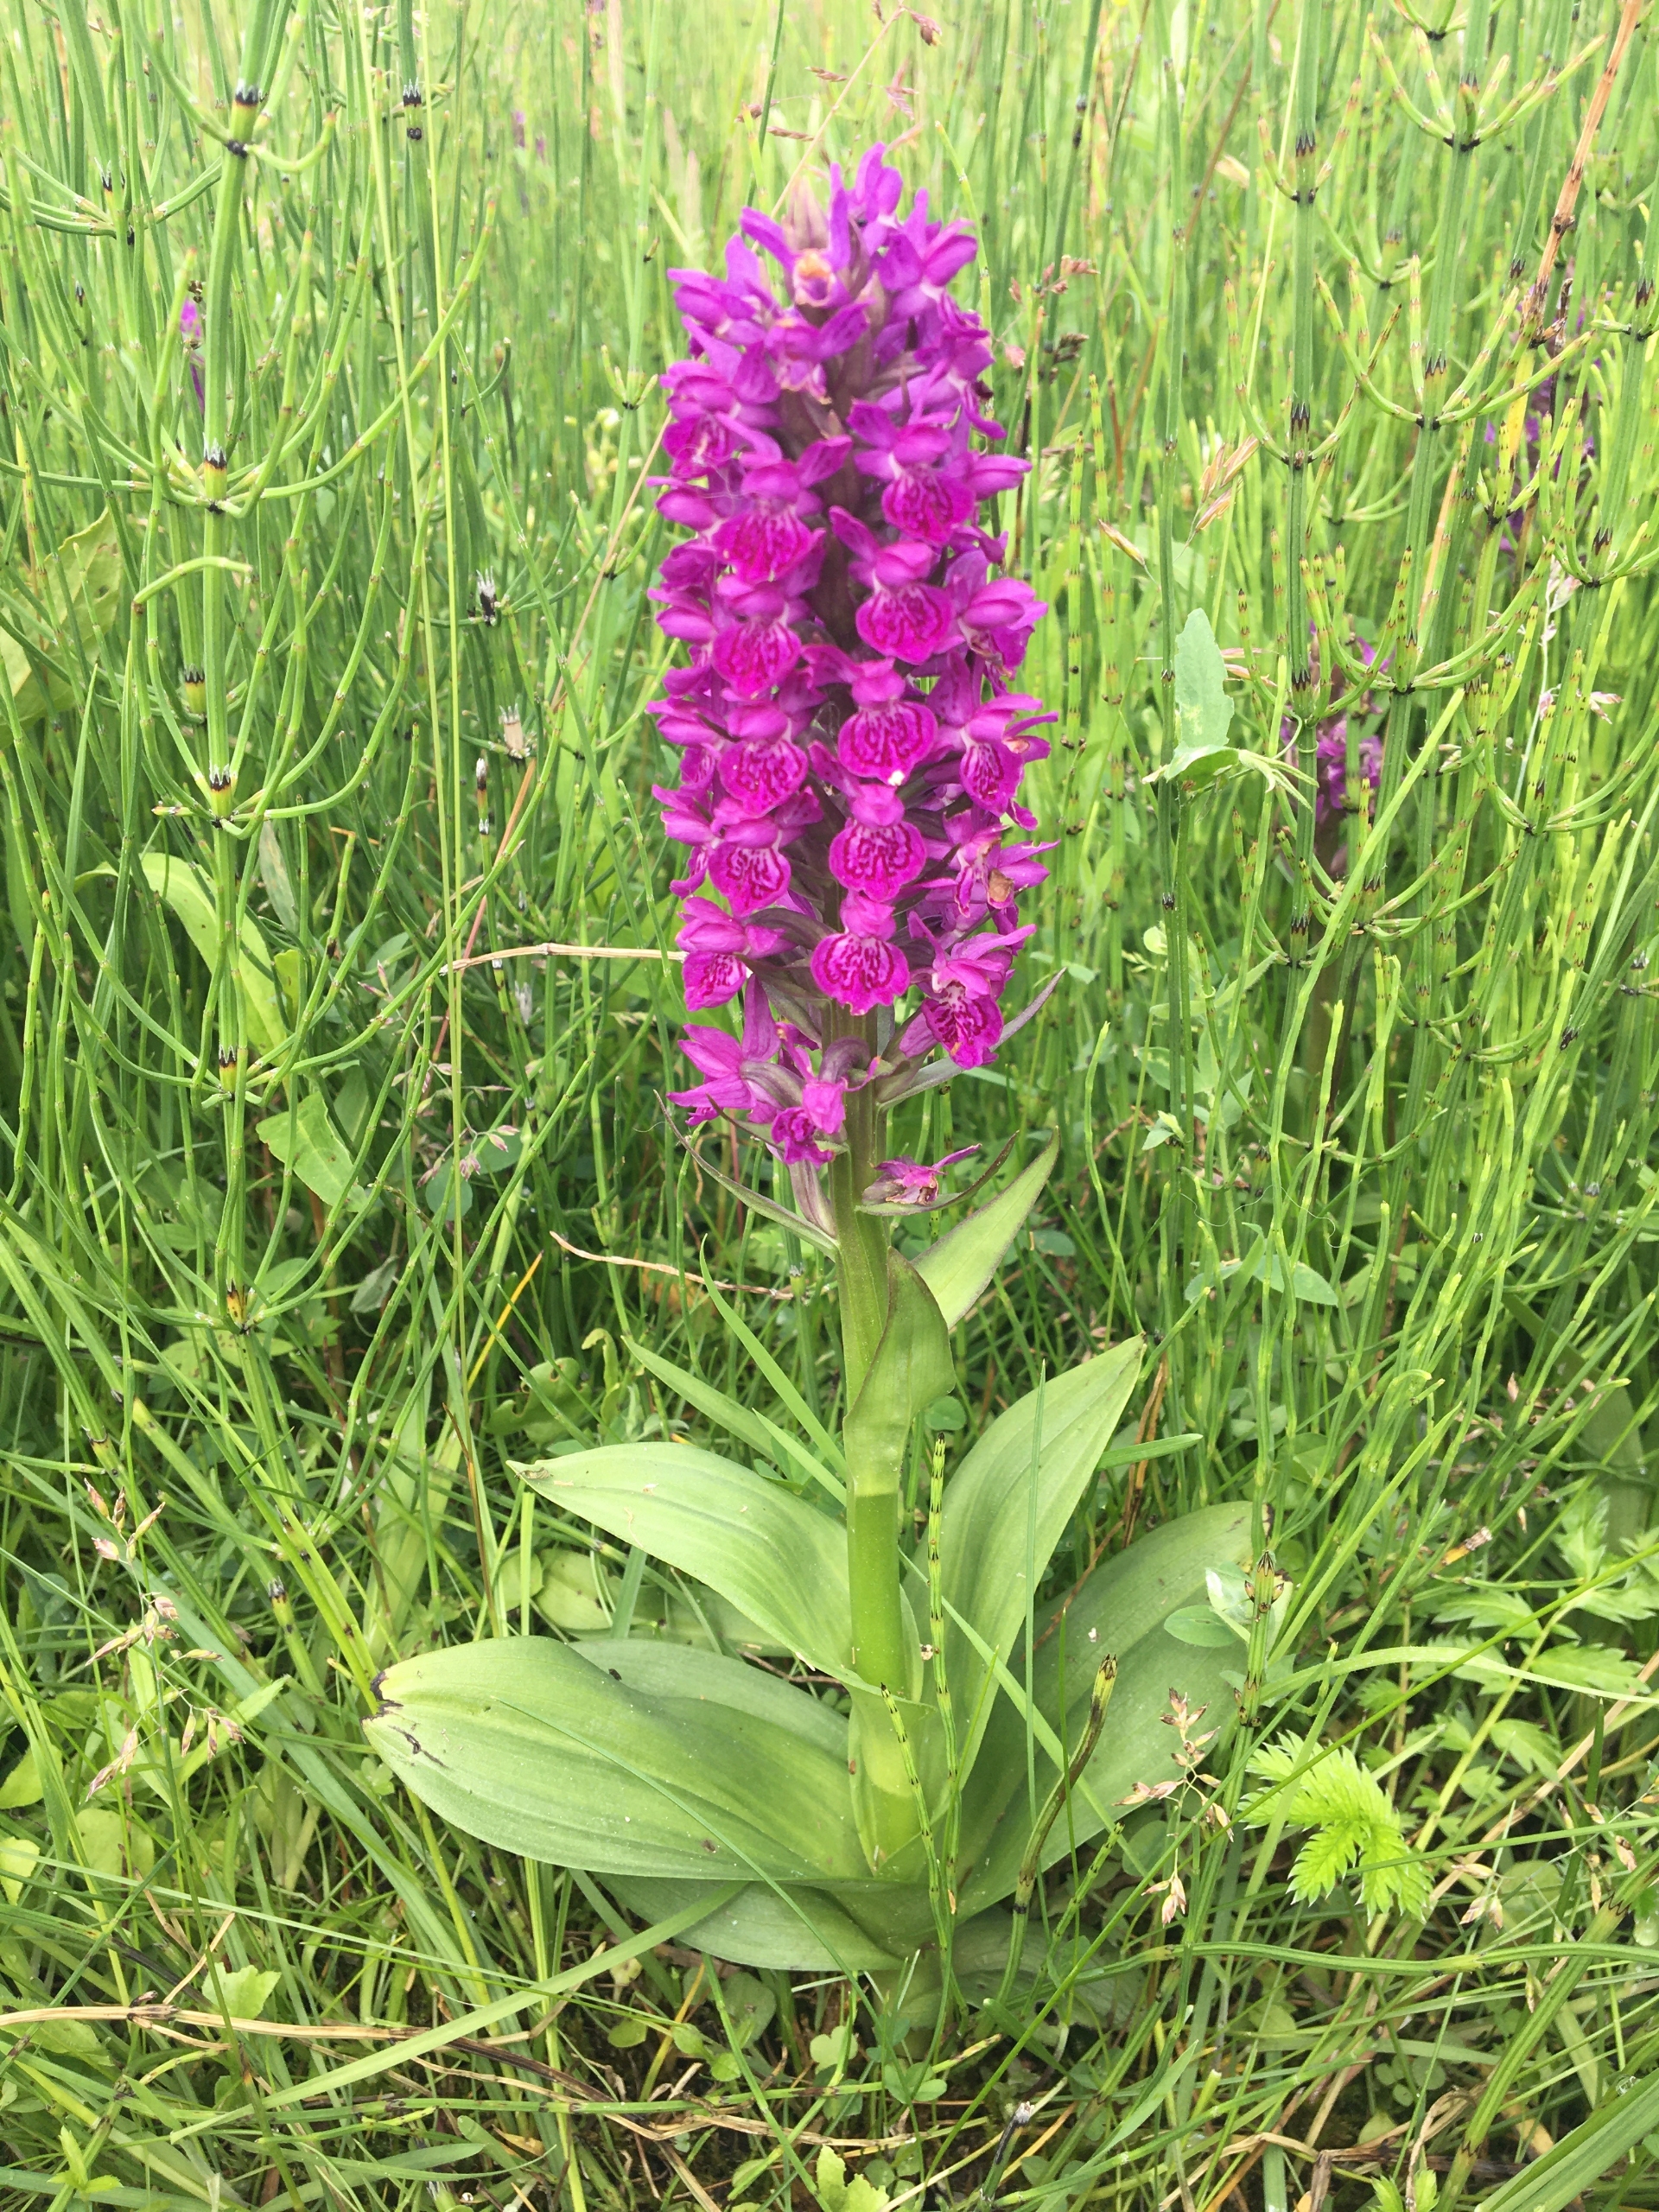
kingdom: Plantae
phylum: Tracheophyta
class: Liliopsida
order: Asparagales
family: Orchidaceae
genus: Dactylorhiza
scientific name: Dactylorhiza majalis
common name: Purpur-gøgeurt
